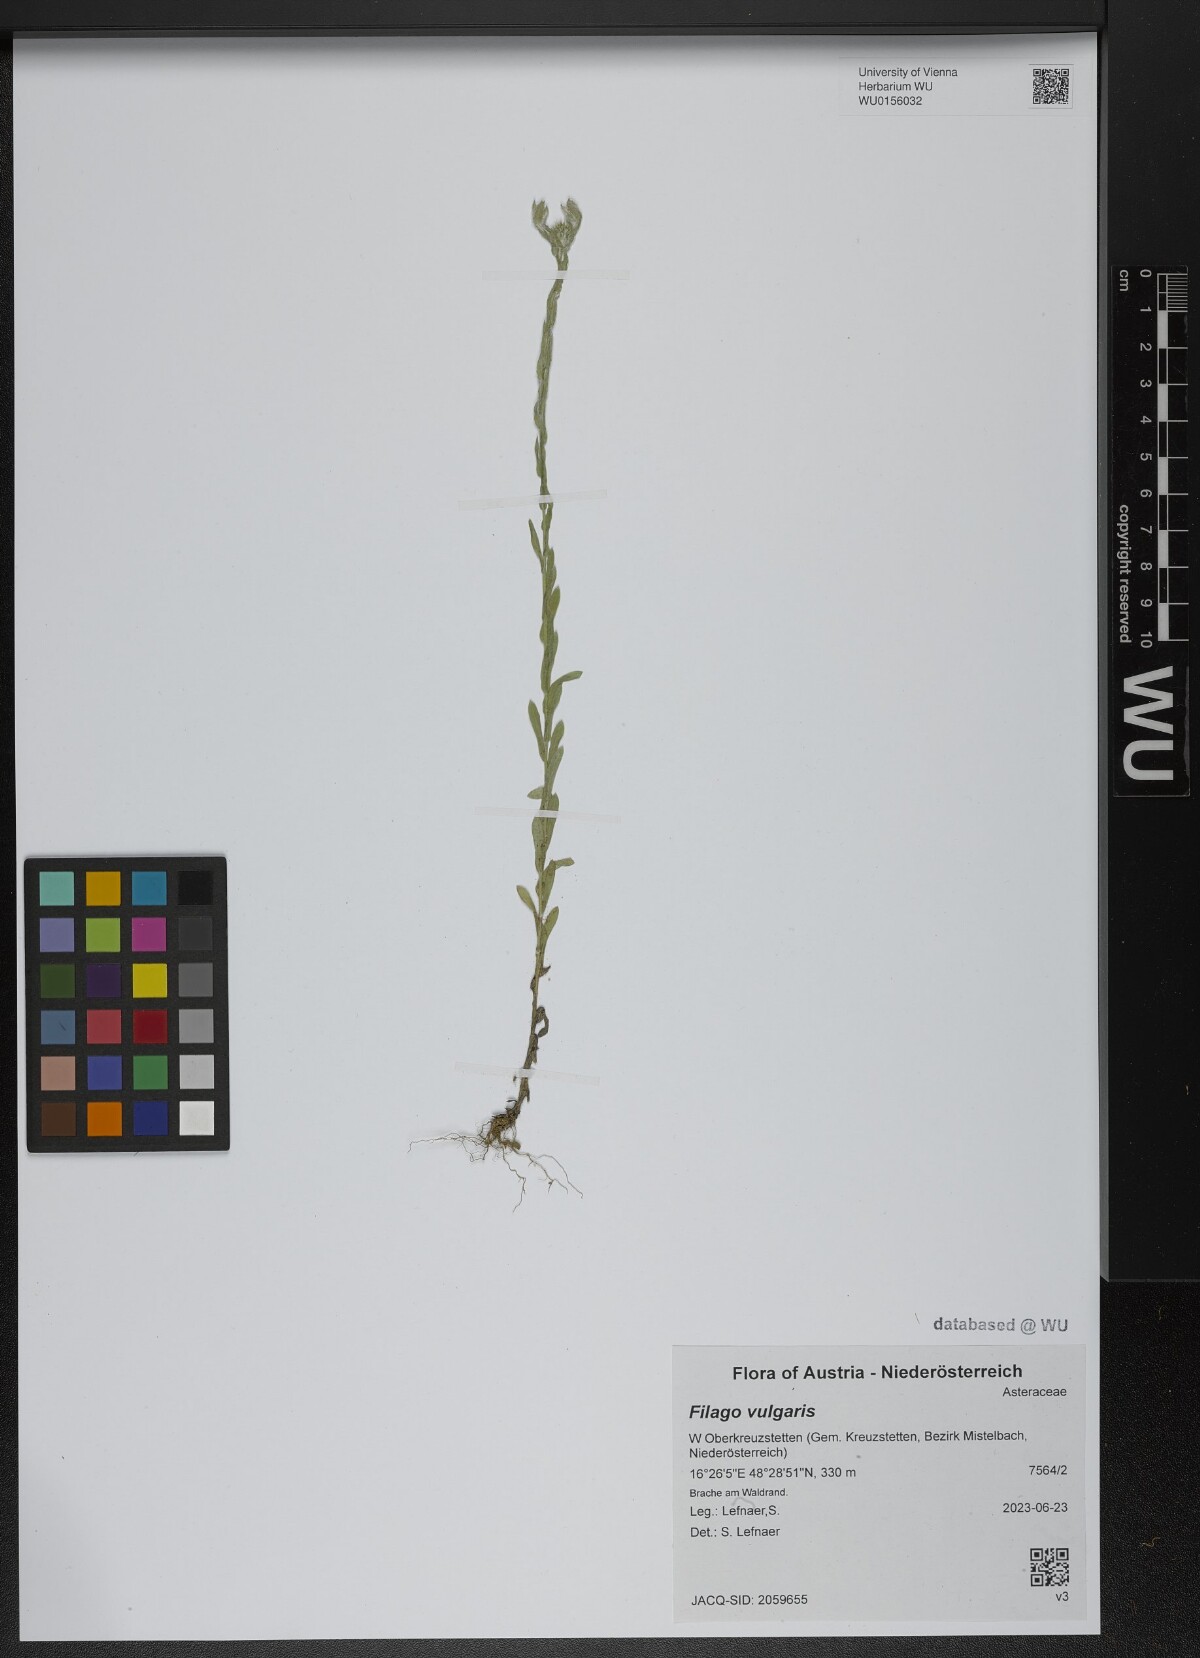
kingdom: Plantae
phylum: Tracheophyta
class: Magnoliopsida
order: Asterales
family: Asteraceae
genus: Filago
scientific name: Filago germanica
